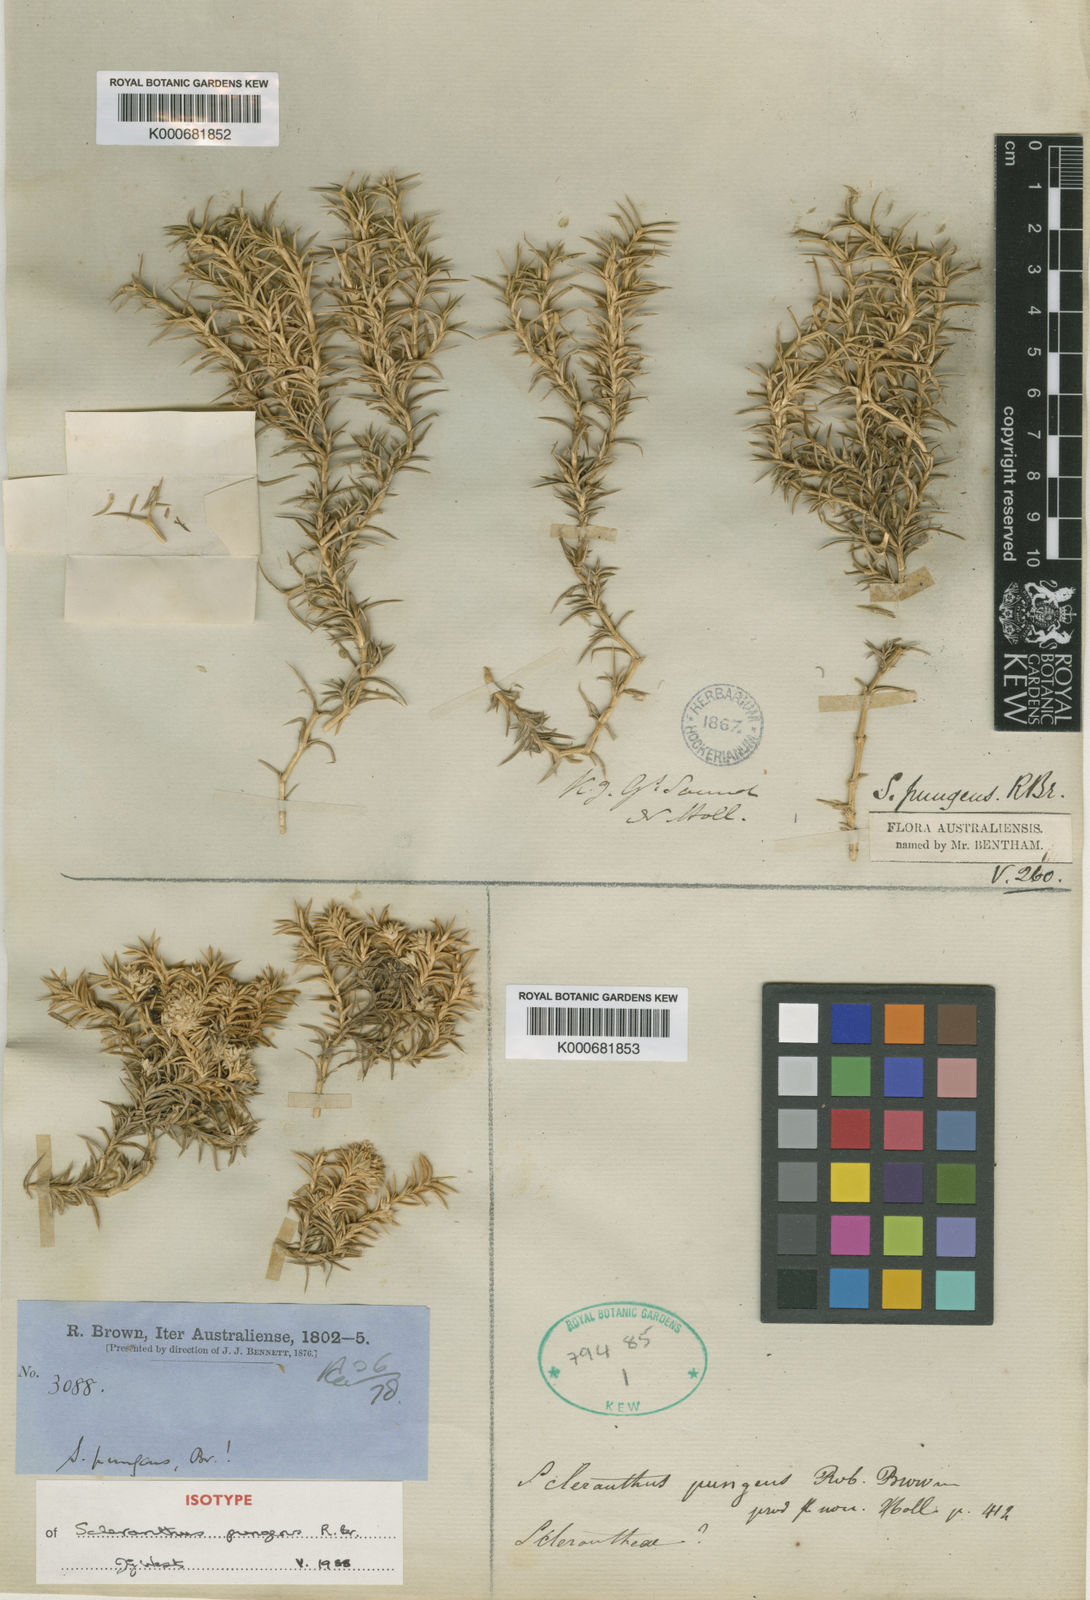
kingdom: Plantae
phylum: Tracheophyta
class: Magnoliopsida
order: Caryophyllales
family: Caryophyllaceae
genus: Scleranthus
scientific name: Scleranthus pungens
